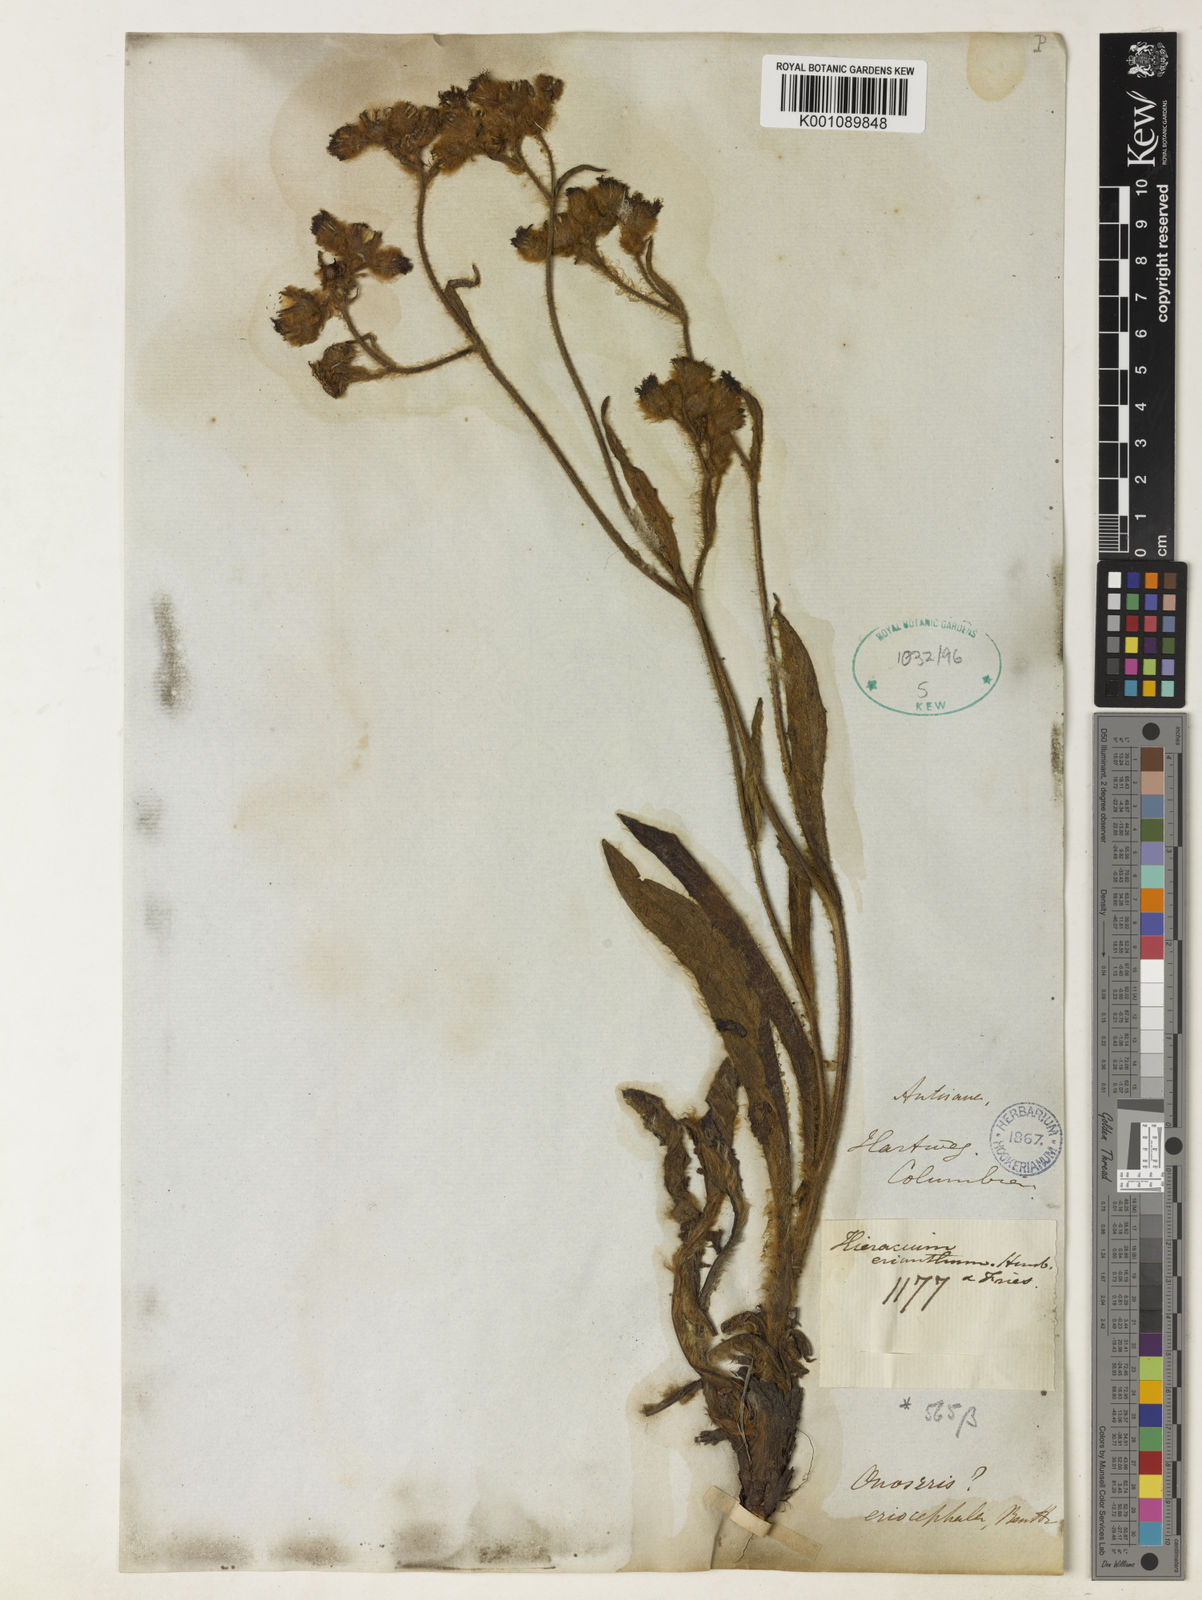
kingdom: Plantae
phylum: Tracheophyta
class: Magnoliopsida
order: Asterales
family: Asteraceae
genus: Hieracium
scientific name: Hieracium
